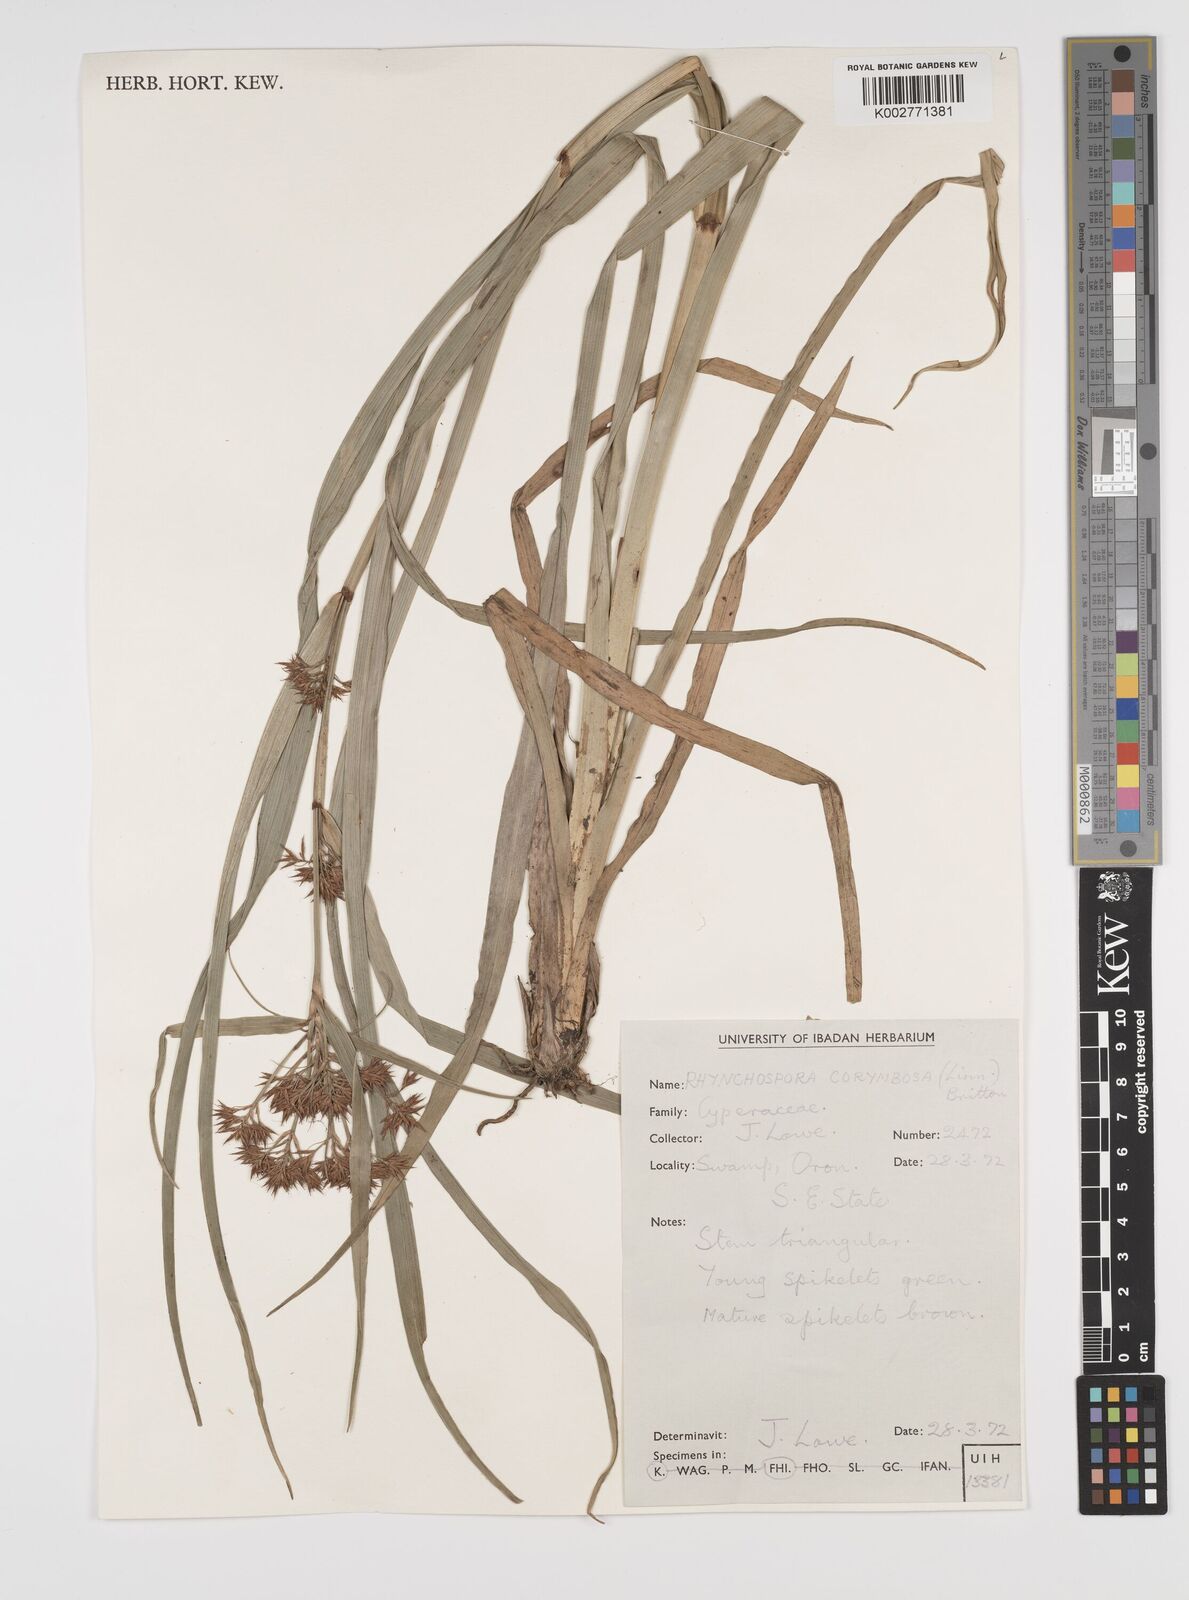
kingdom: Plantae
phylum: Tracheophyta
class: Liliopsida
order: Poales
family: Cyperaceae
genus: Rhynchospora
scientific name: Rhynchospora corymbosa
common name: Golden beak sedge
